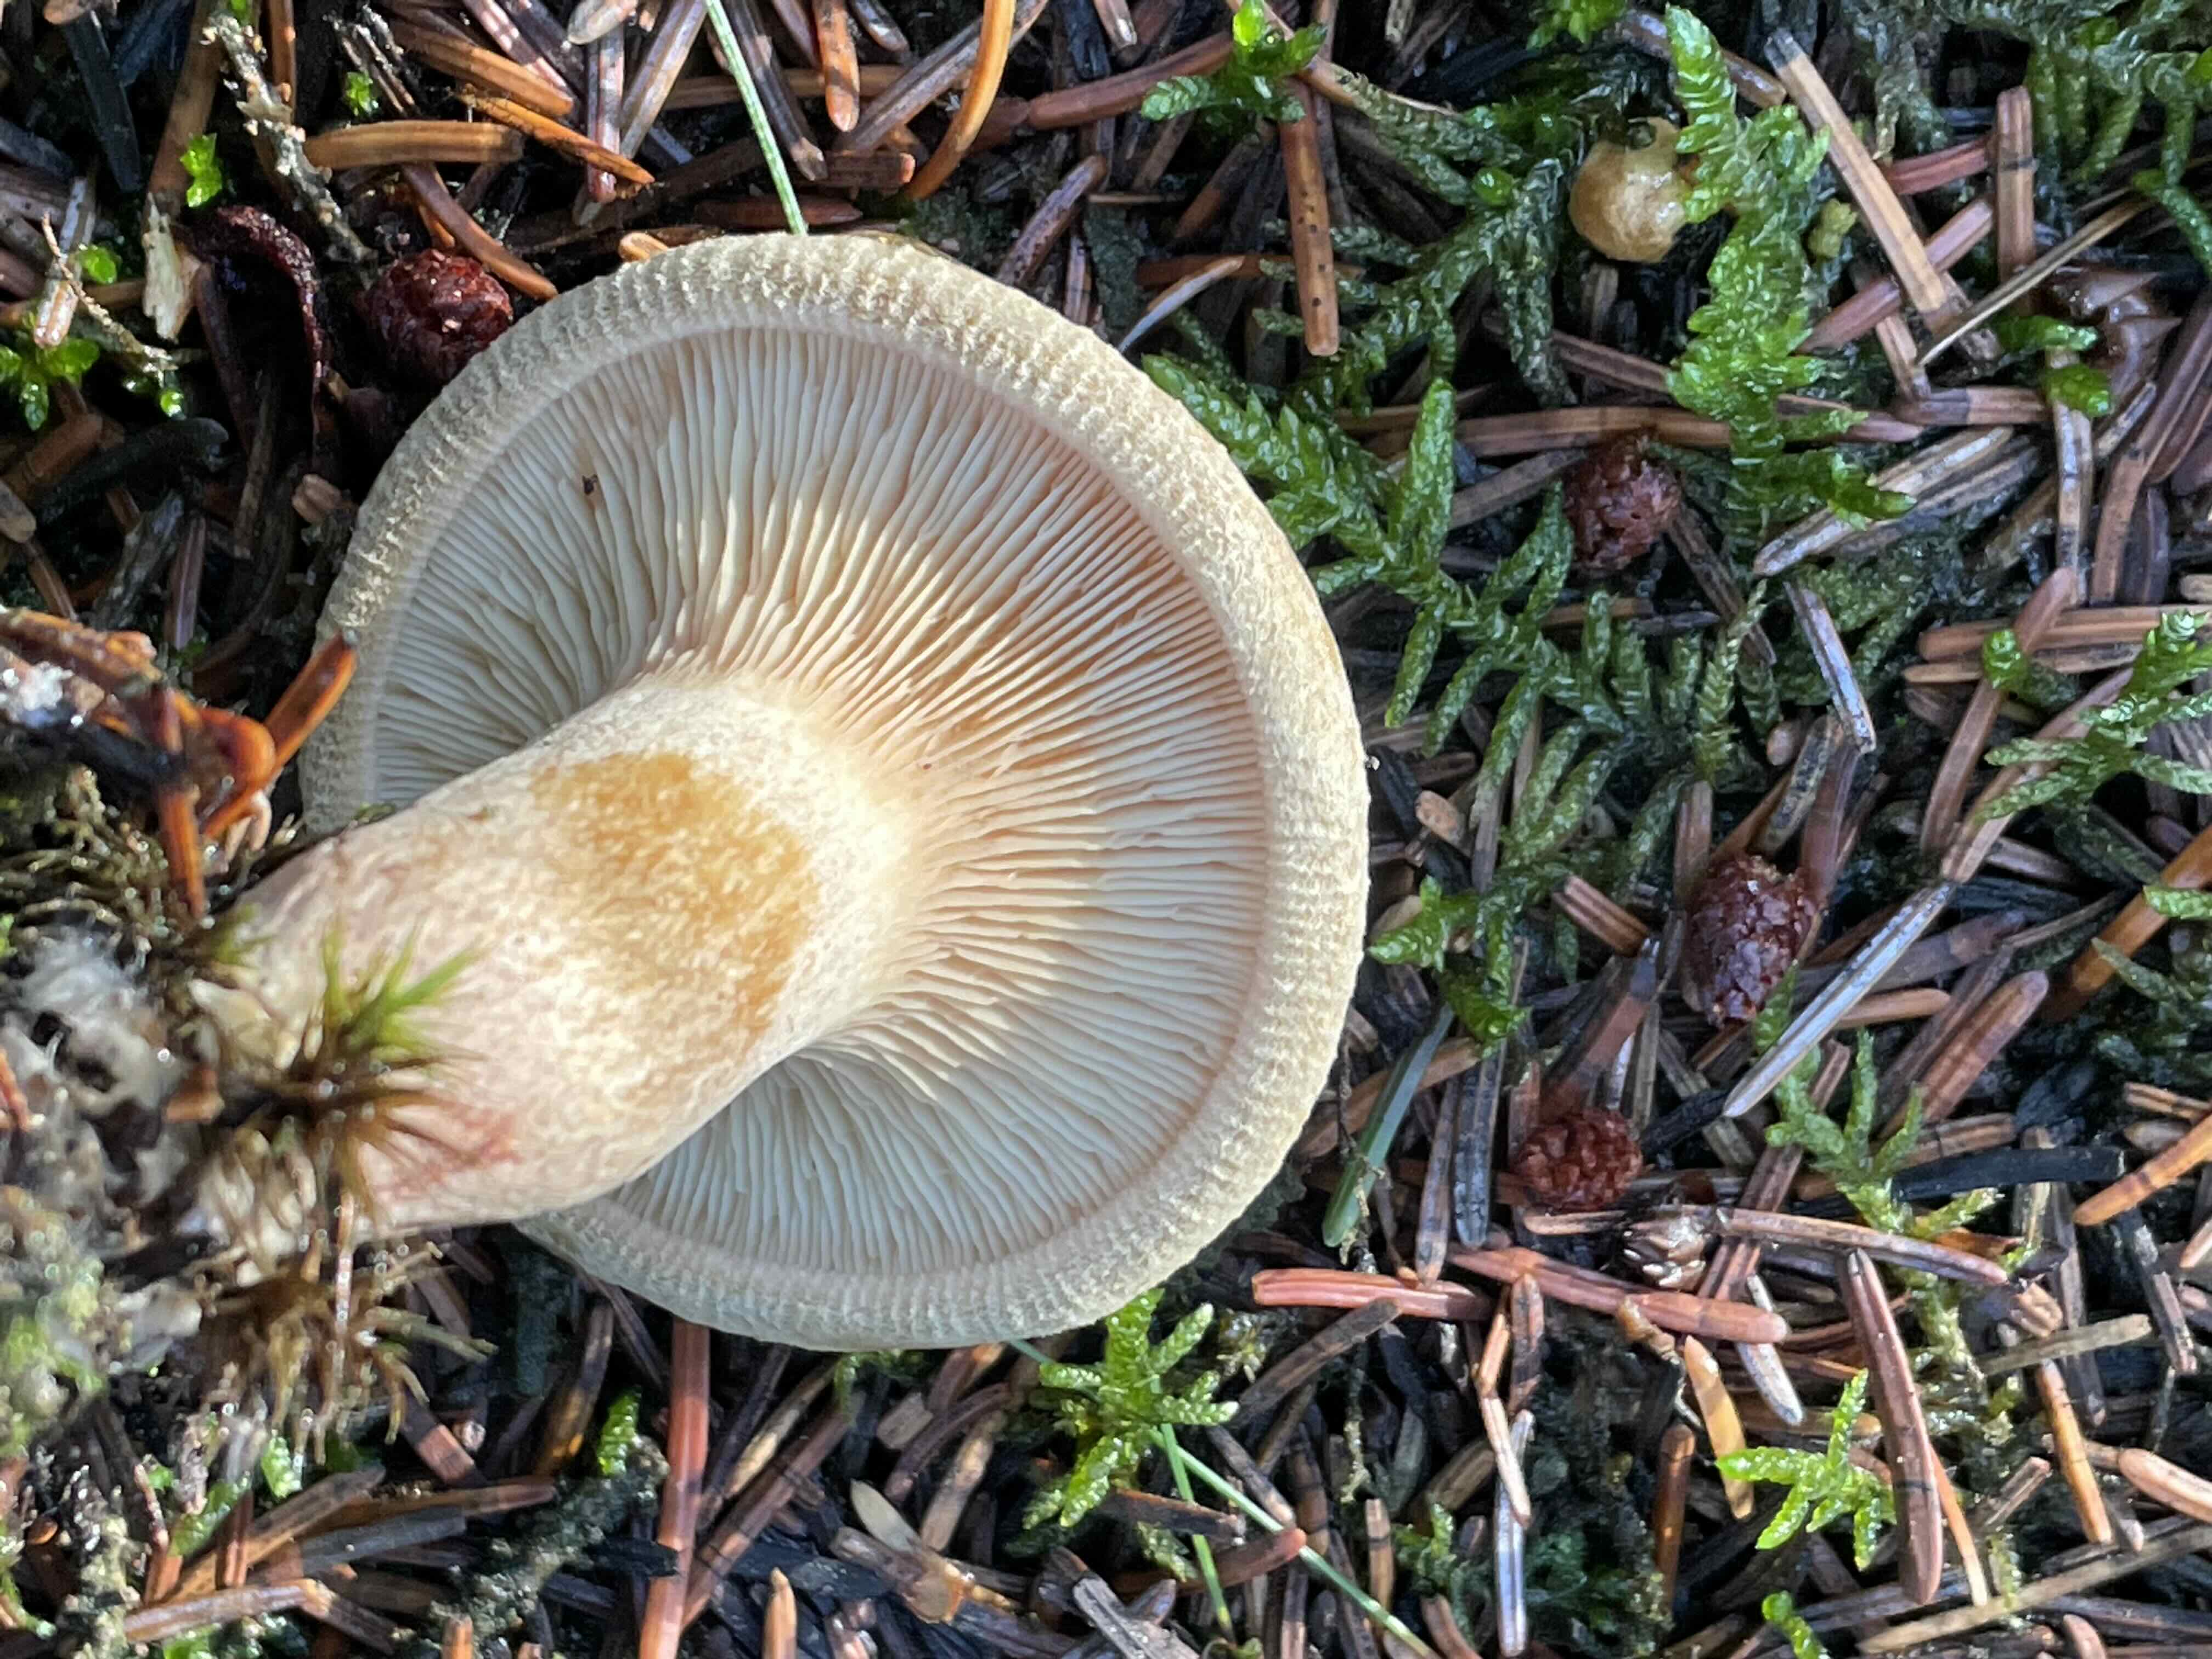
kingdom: Fungi
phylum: Basidiomycota
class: Agaricomycetes
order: Boletales
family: Paxillaceae
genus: Paxillus
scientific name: Paxillus involutus
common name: almindelig netbladhat
